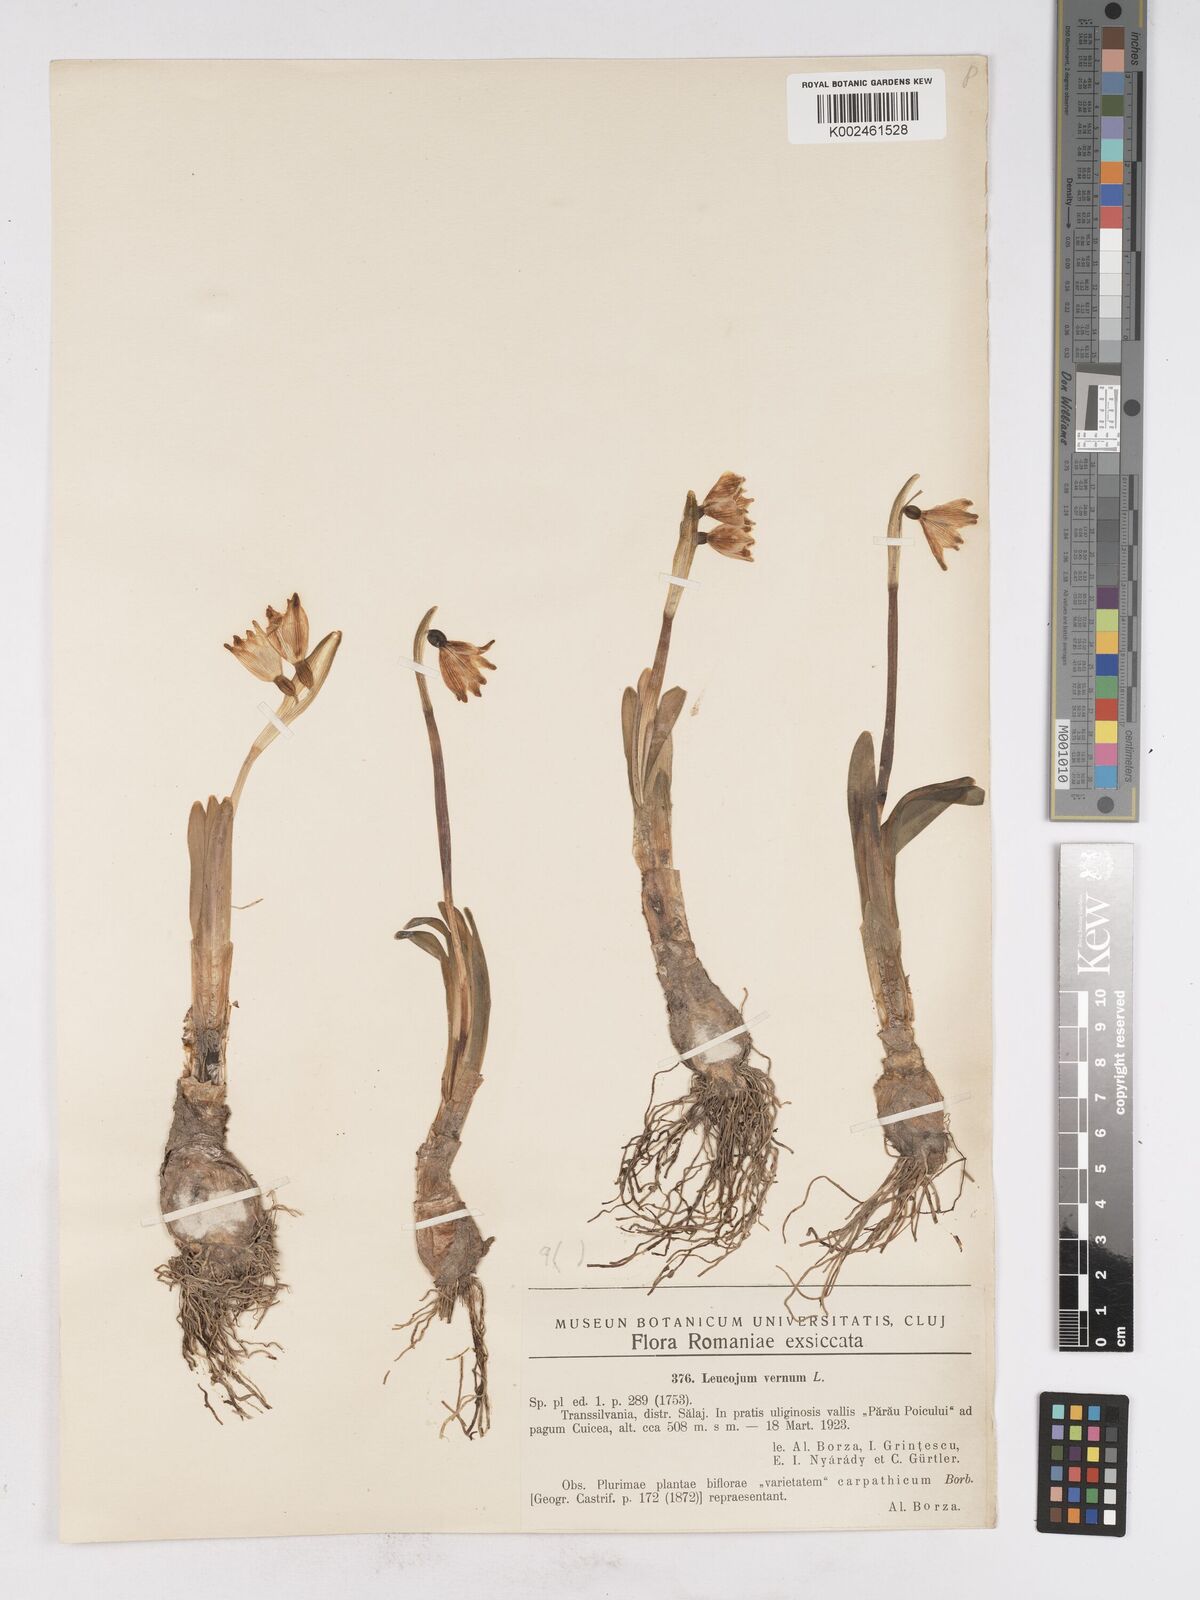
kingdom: Plantae
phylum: Tracheophyta
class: Liliopsida
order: Asparagales
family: Amaryllidaceae
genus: Leucojum
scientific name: Leucojum vernum
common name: Spring snowflake
